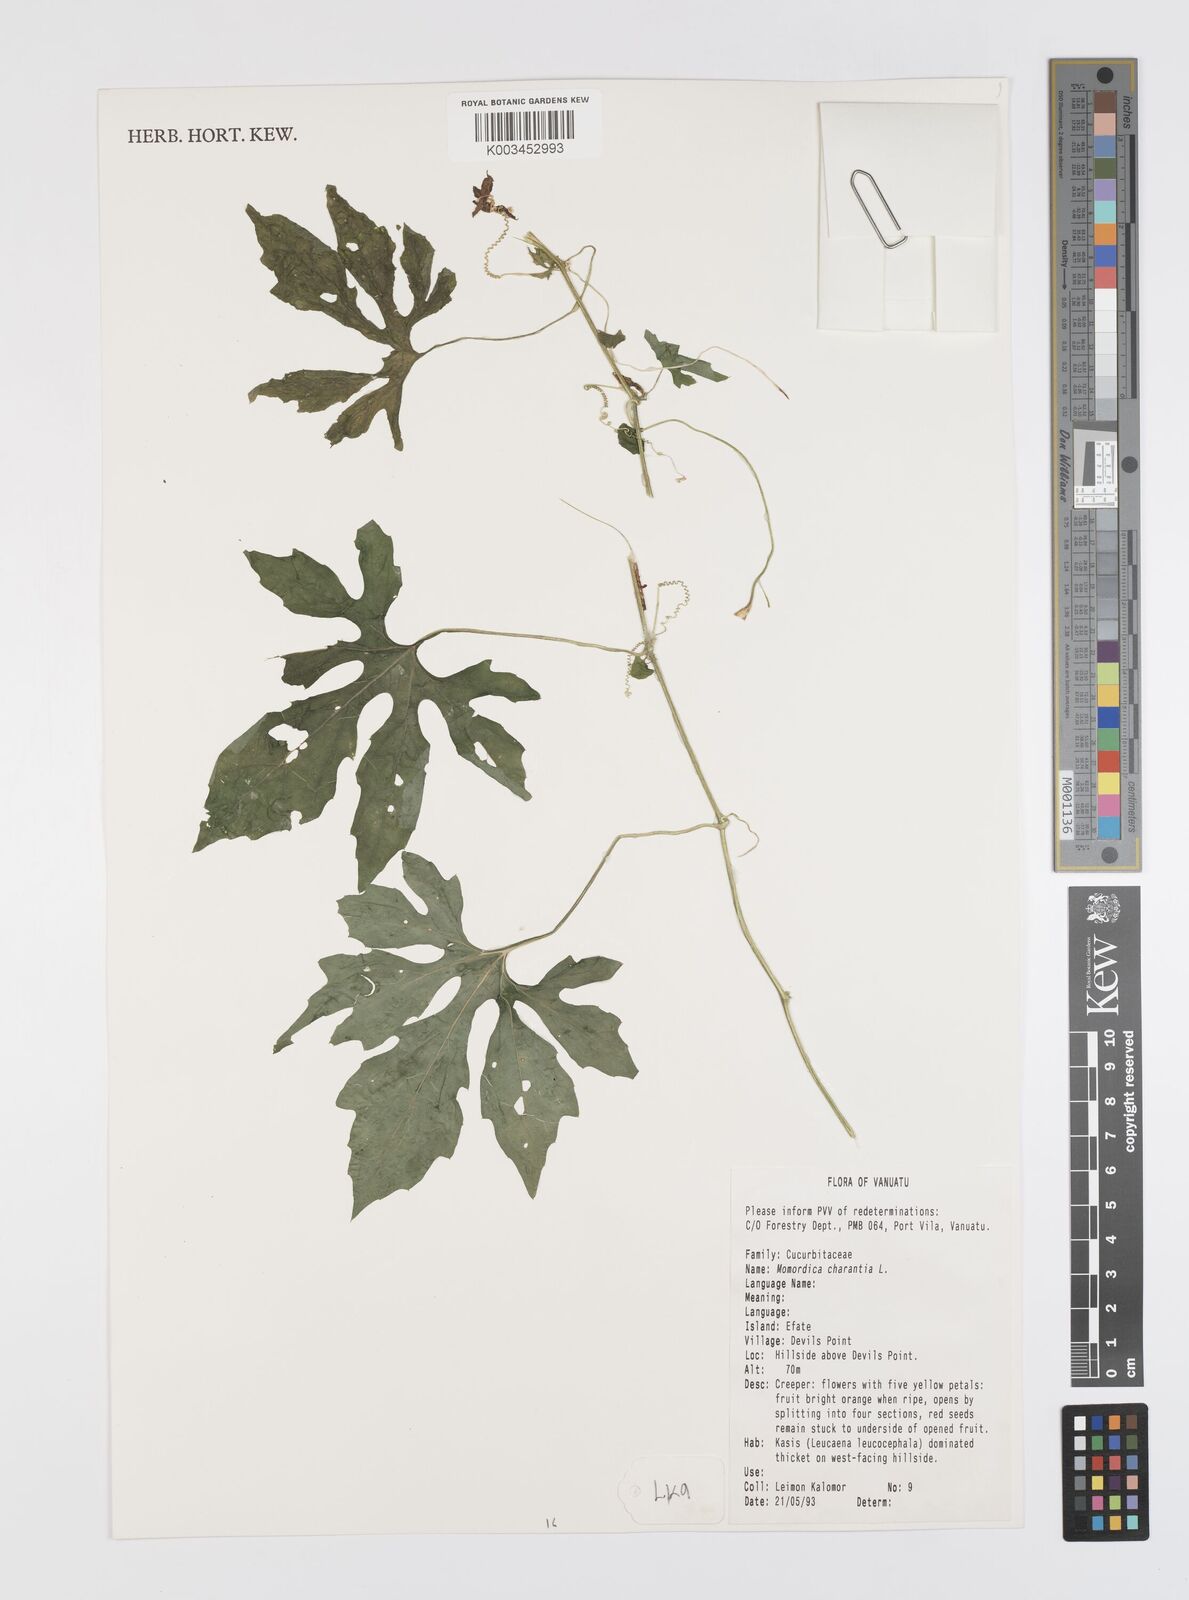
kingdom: Plantae
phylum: Tracheophyta
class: Magnoliopsida
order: Cucurbitales
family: Cucurbitaceae
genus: Momordica
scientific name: Momordica charantia
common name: Balsampear
